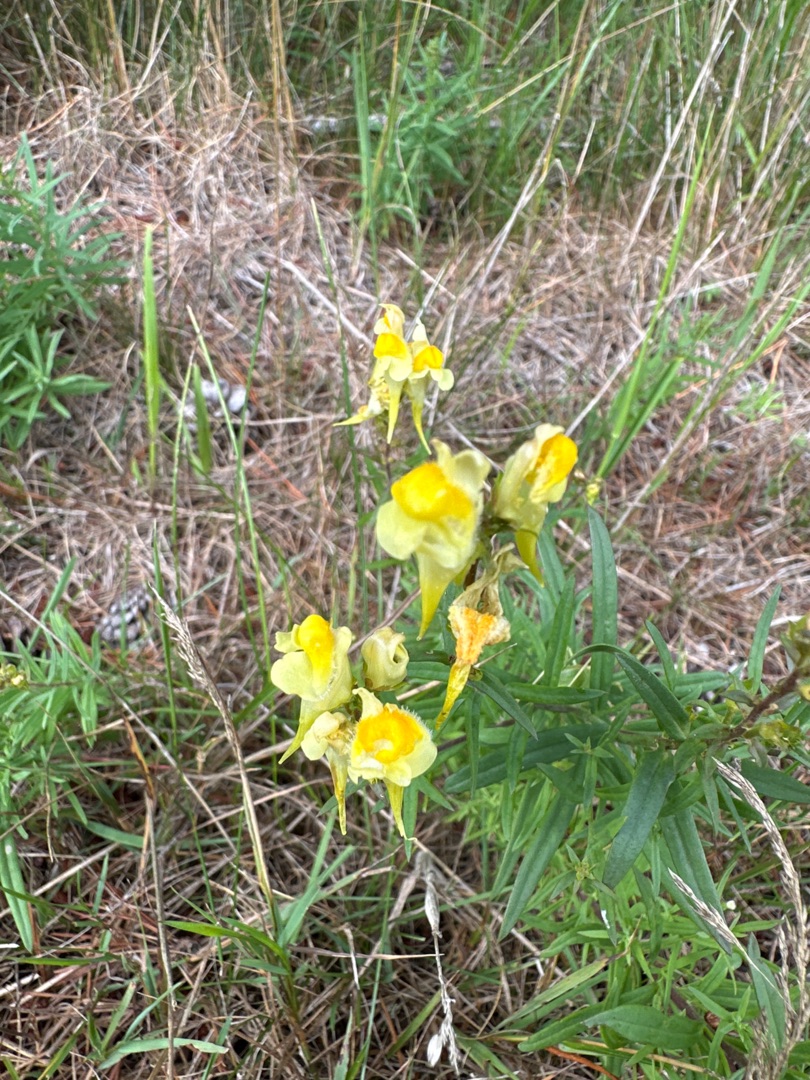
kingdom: Plantae
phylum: Tracheophyta
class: Magnoliopsida
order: Lamiales
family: Plantaginaceae
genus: Linaria
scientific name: Linaria vulgaris
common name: Almindelig torskemund
